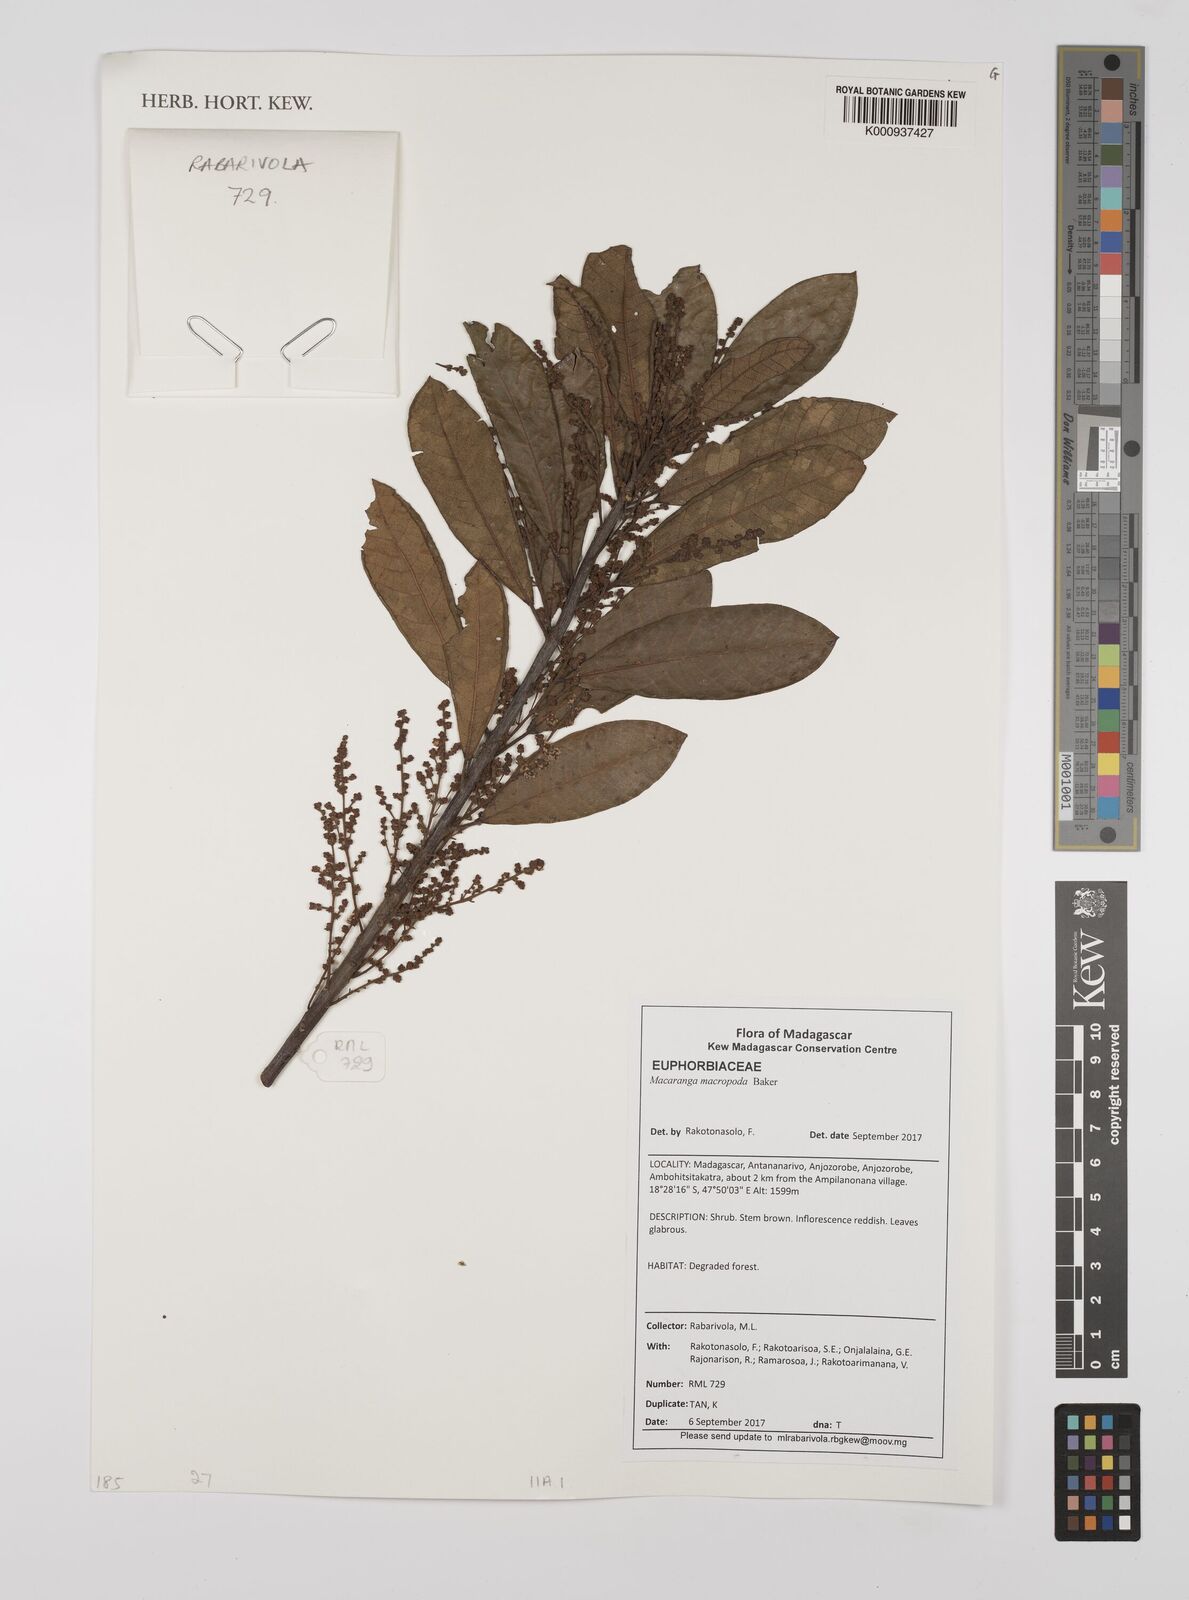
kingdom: Plantae
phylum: Tracheophyta
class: Magnoliopsida
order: Malpighiales
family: Euphorbiaceae
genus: Macaranga
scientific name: Macaranga macropoda
